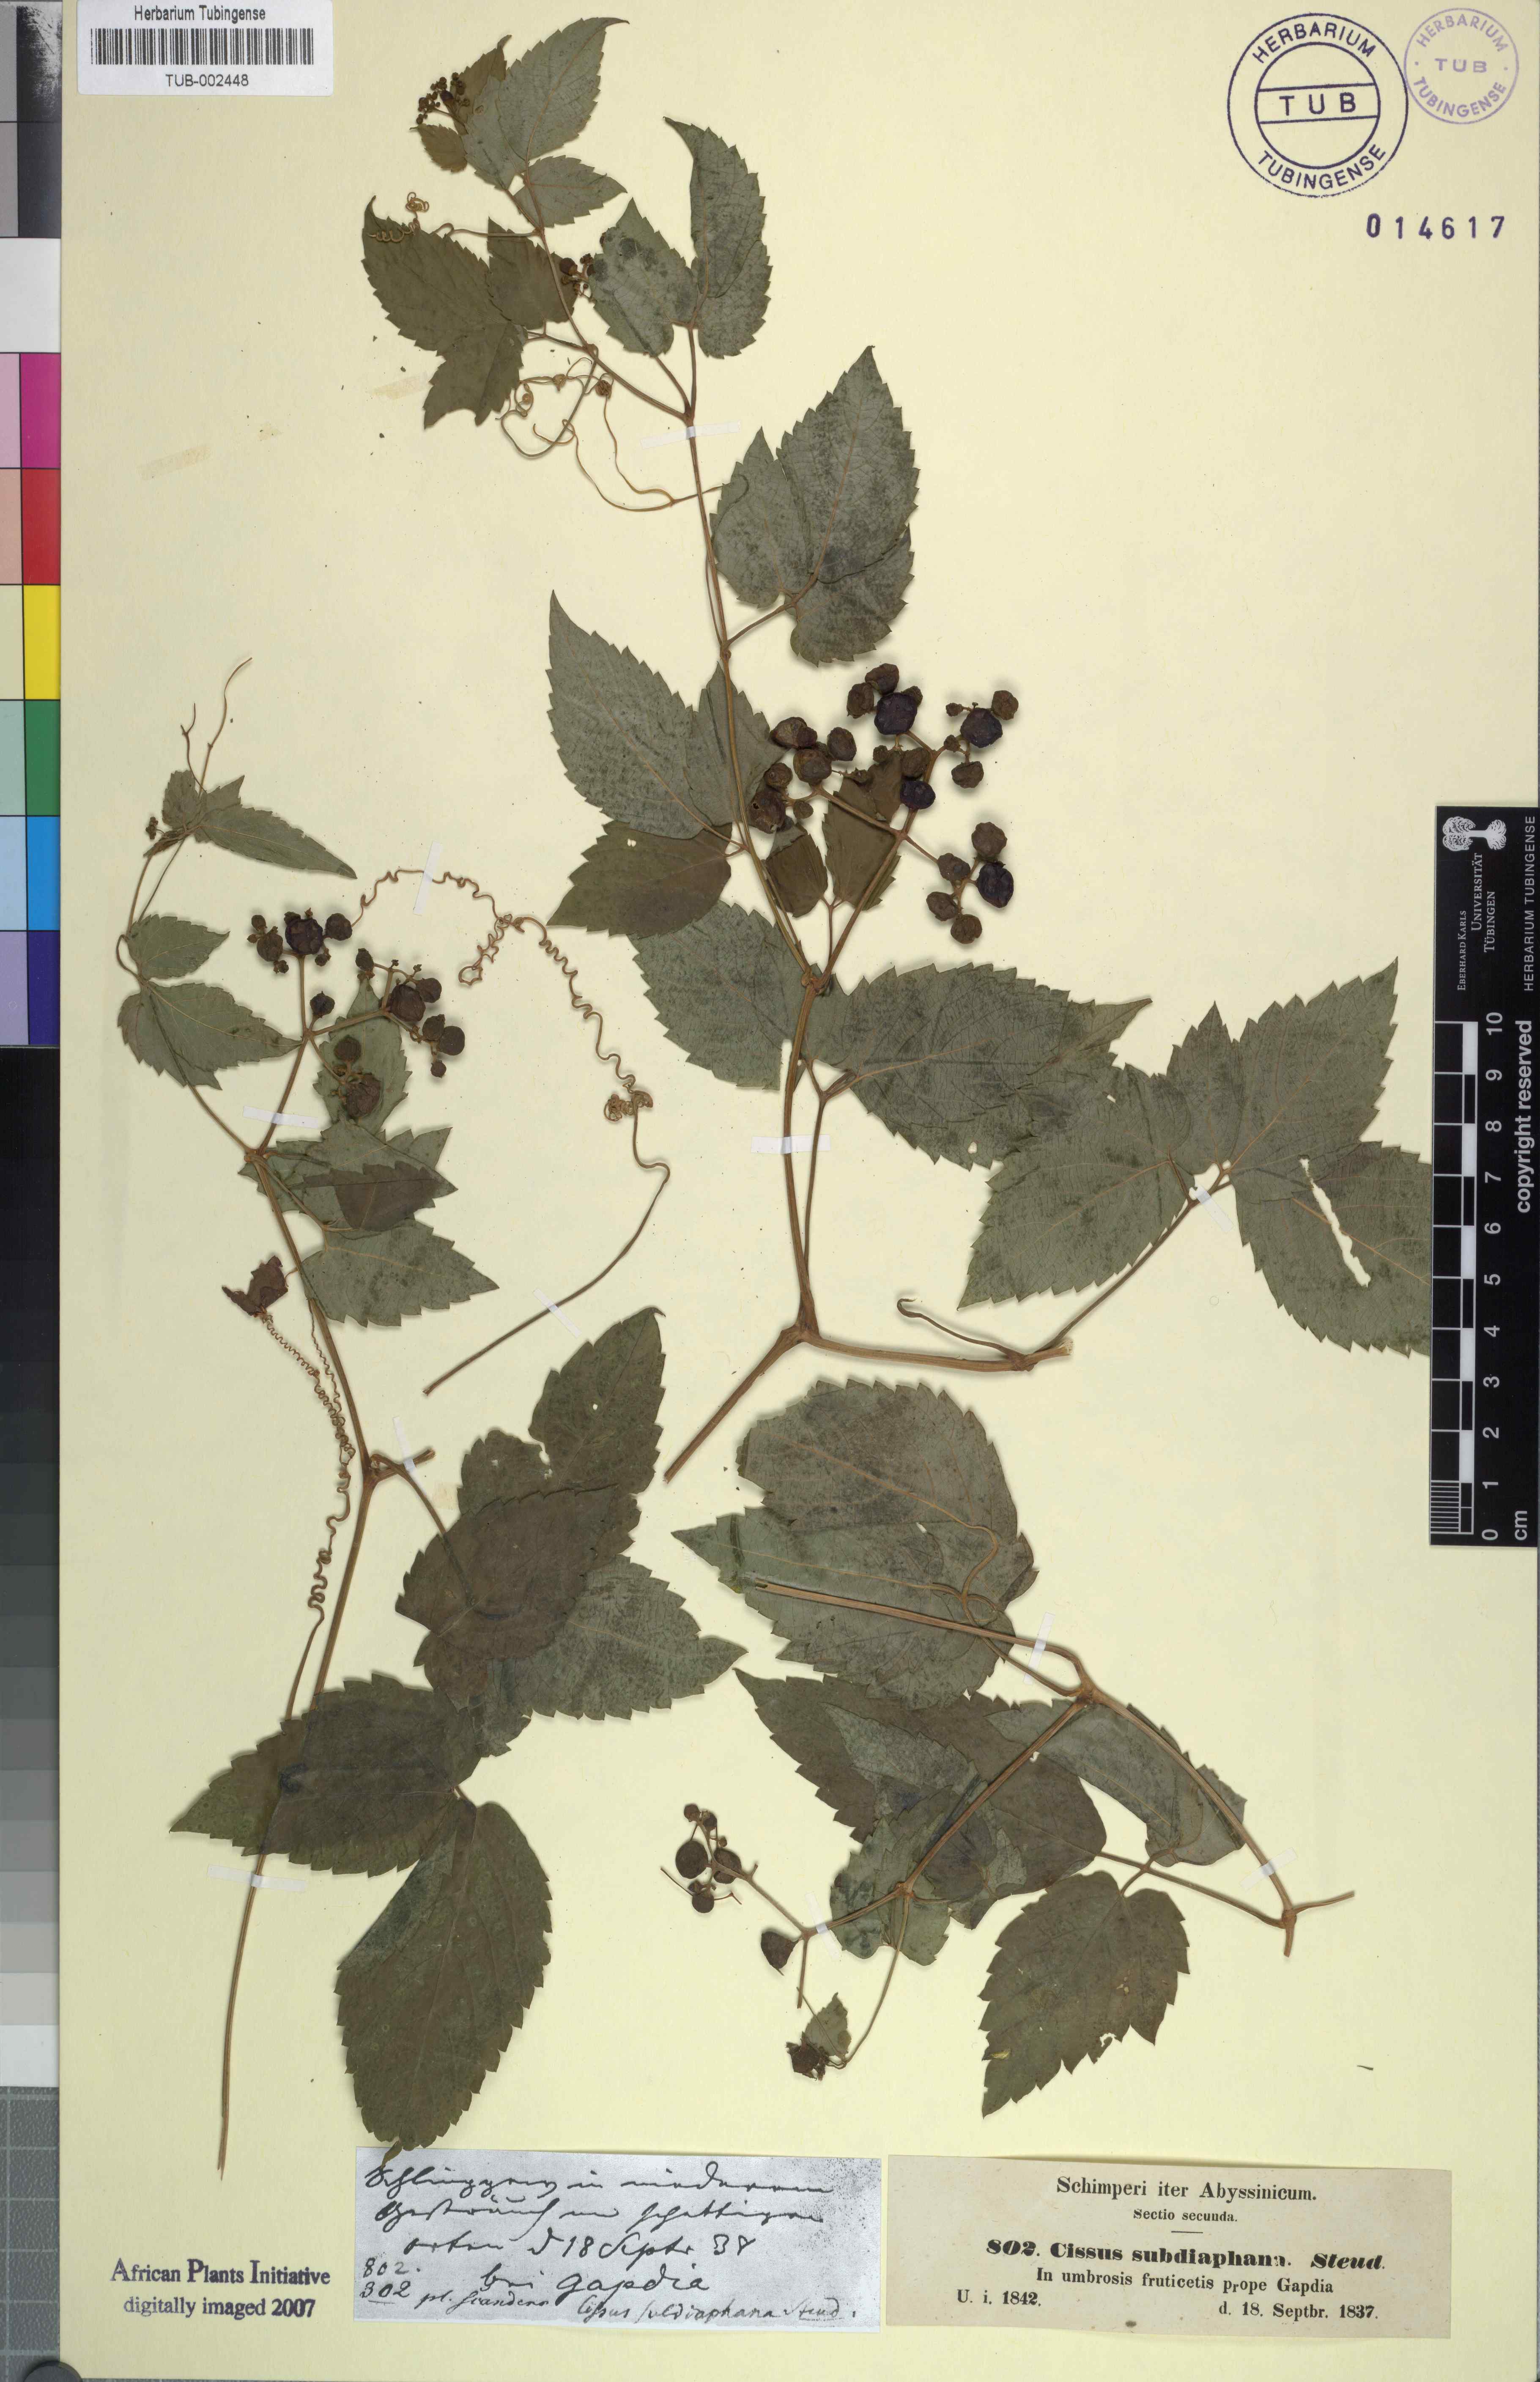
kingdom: Plantae
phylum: Tracheophyta
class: Magnoliopsida
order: Vitales
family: Vitaceae
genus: Afrocayratia
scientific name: Afrocayratia gracilis
